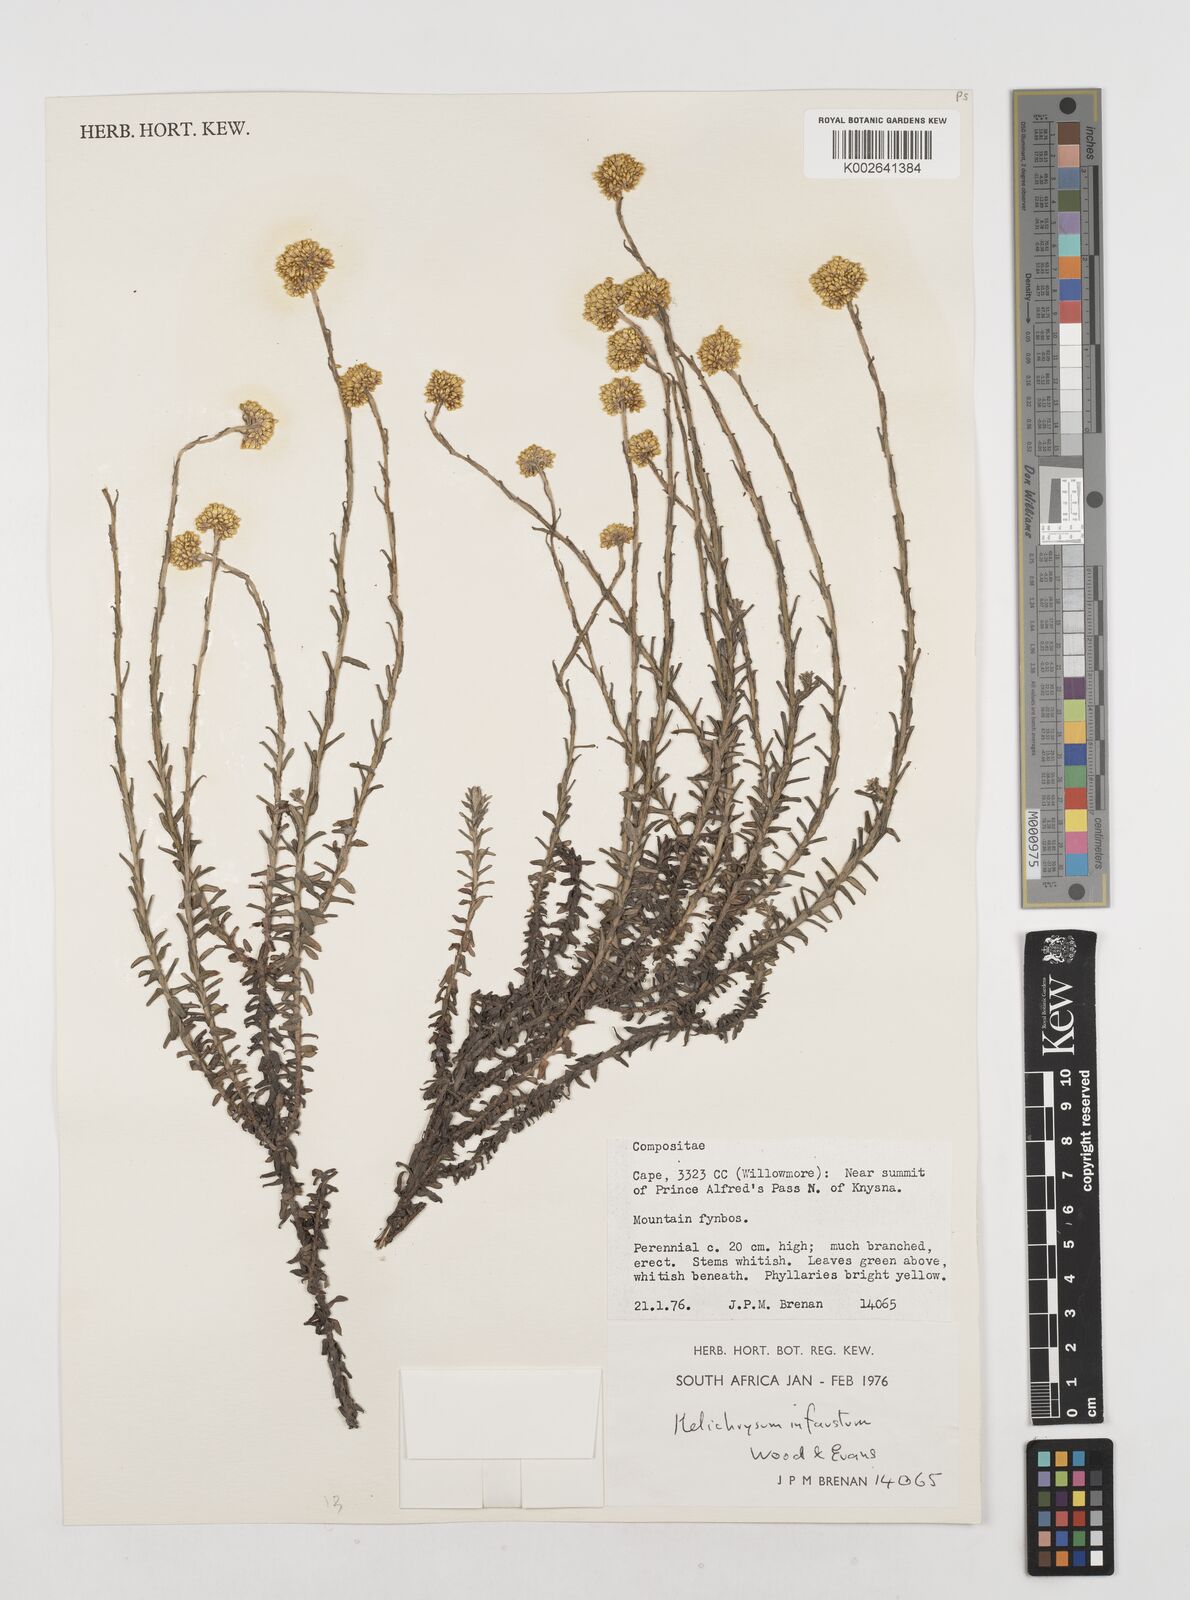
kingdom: Plantae
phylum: Tracheophyta
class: Magnoliopsida
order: Asterales
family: Asteraceae
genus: Calomeria
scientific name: Calomeria infausta
